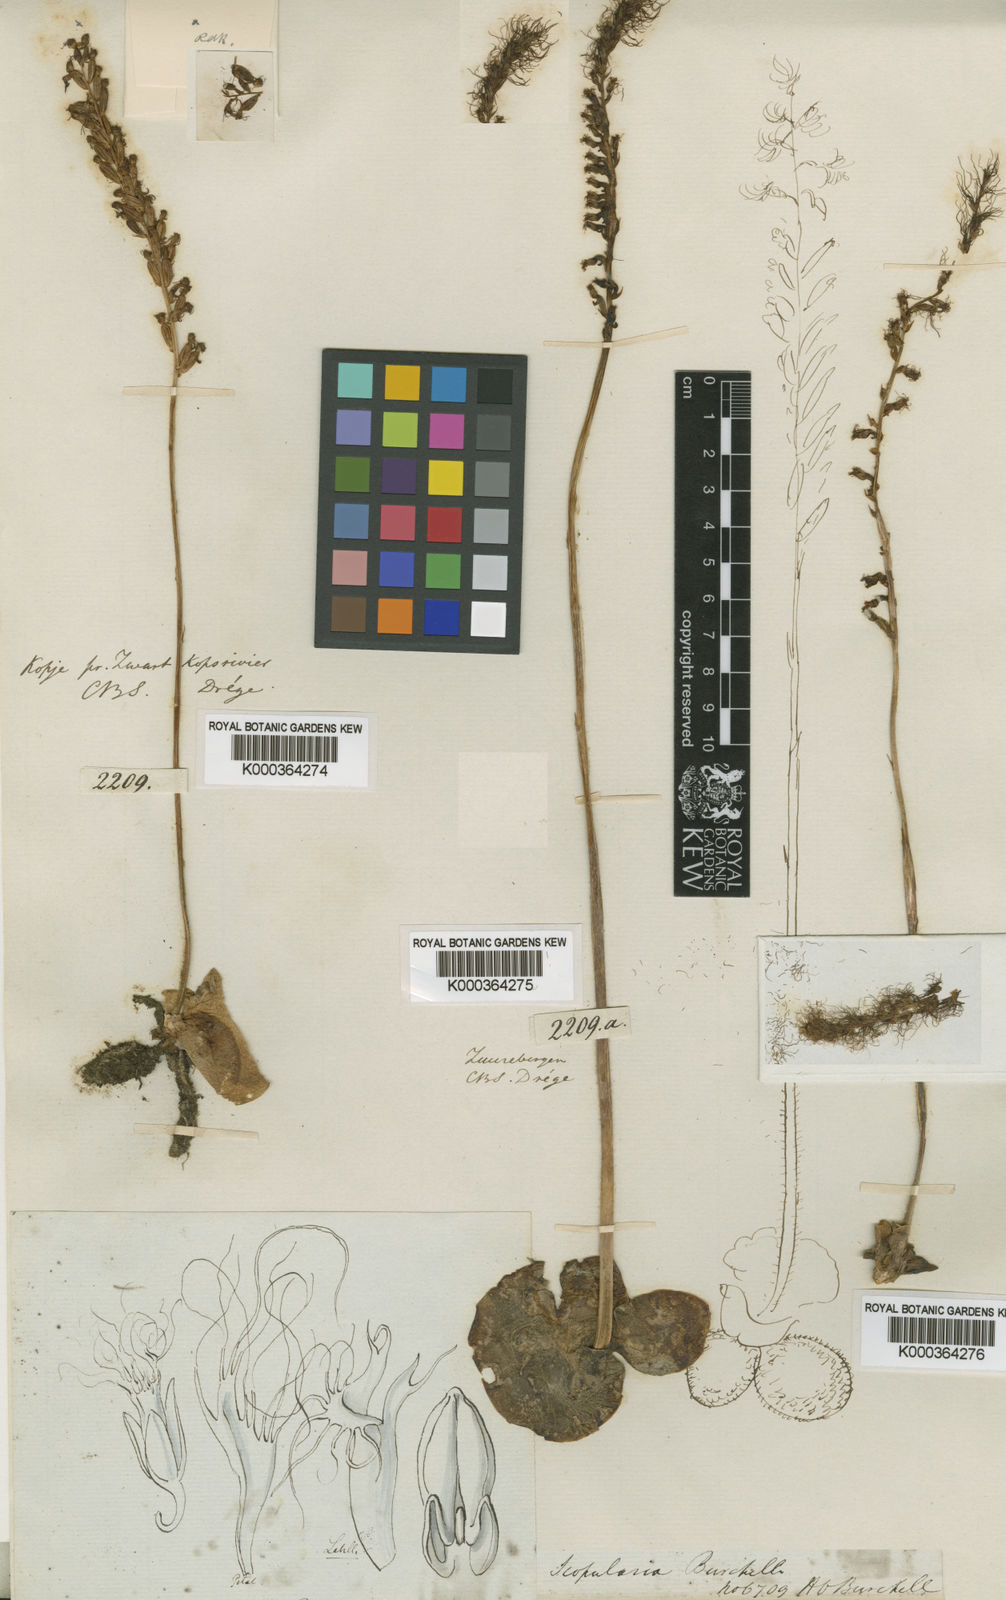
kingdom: Plantae
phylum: Tracheophyta
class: Liliopsida
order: Asparagales
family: Orchidaceae
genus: Holothrix
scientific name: Holothrix burchellii
